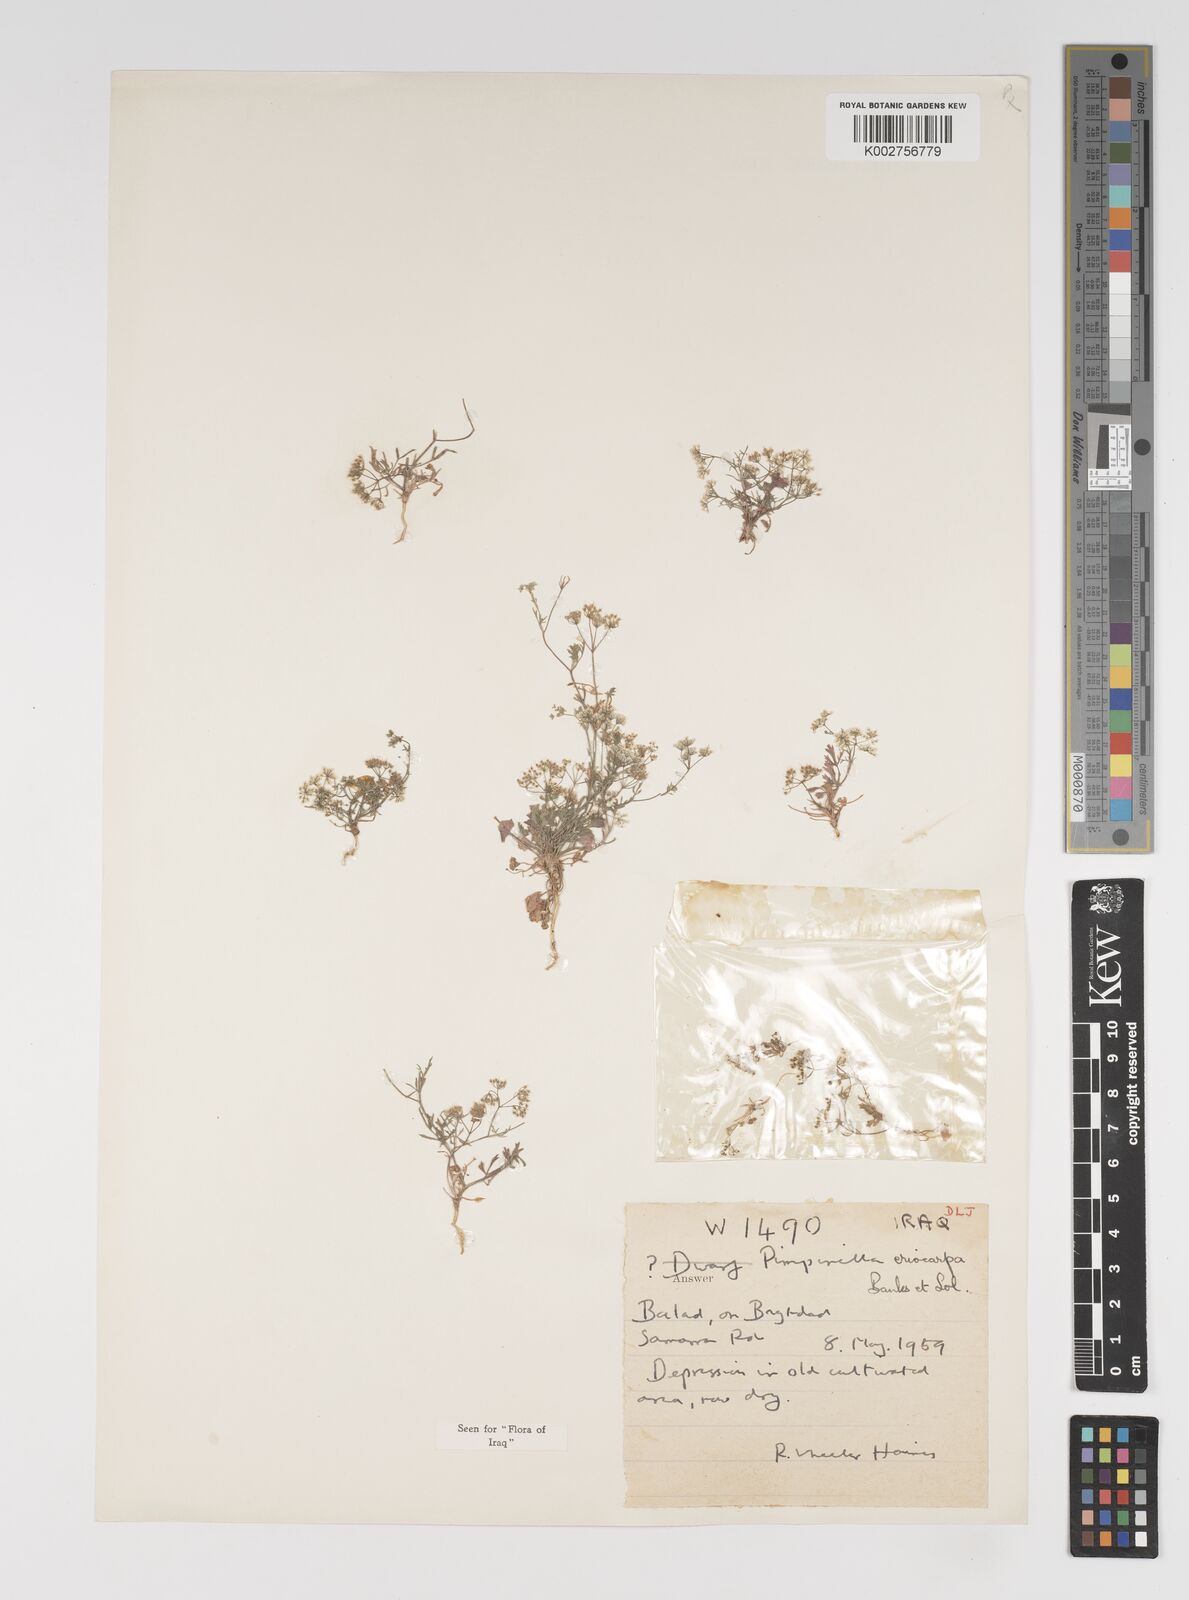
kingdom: Plantae
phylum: Tracheophyta
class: Magnoliopsida
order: Apiales
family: Apiaceae
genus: Pimpinella
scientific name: Pimpinella eriocarpa
